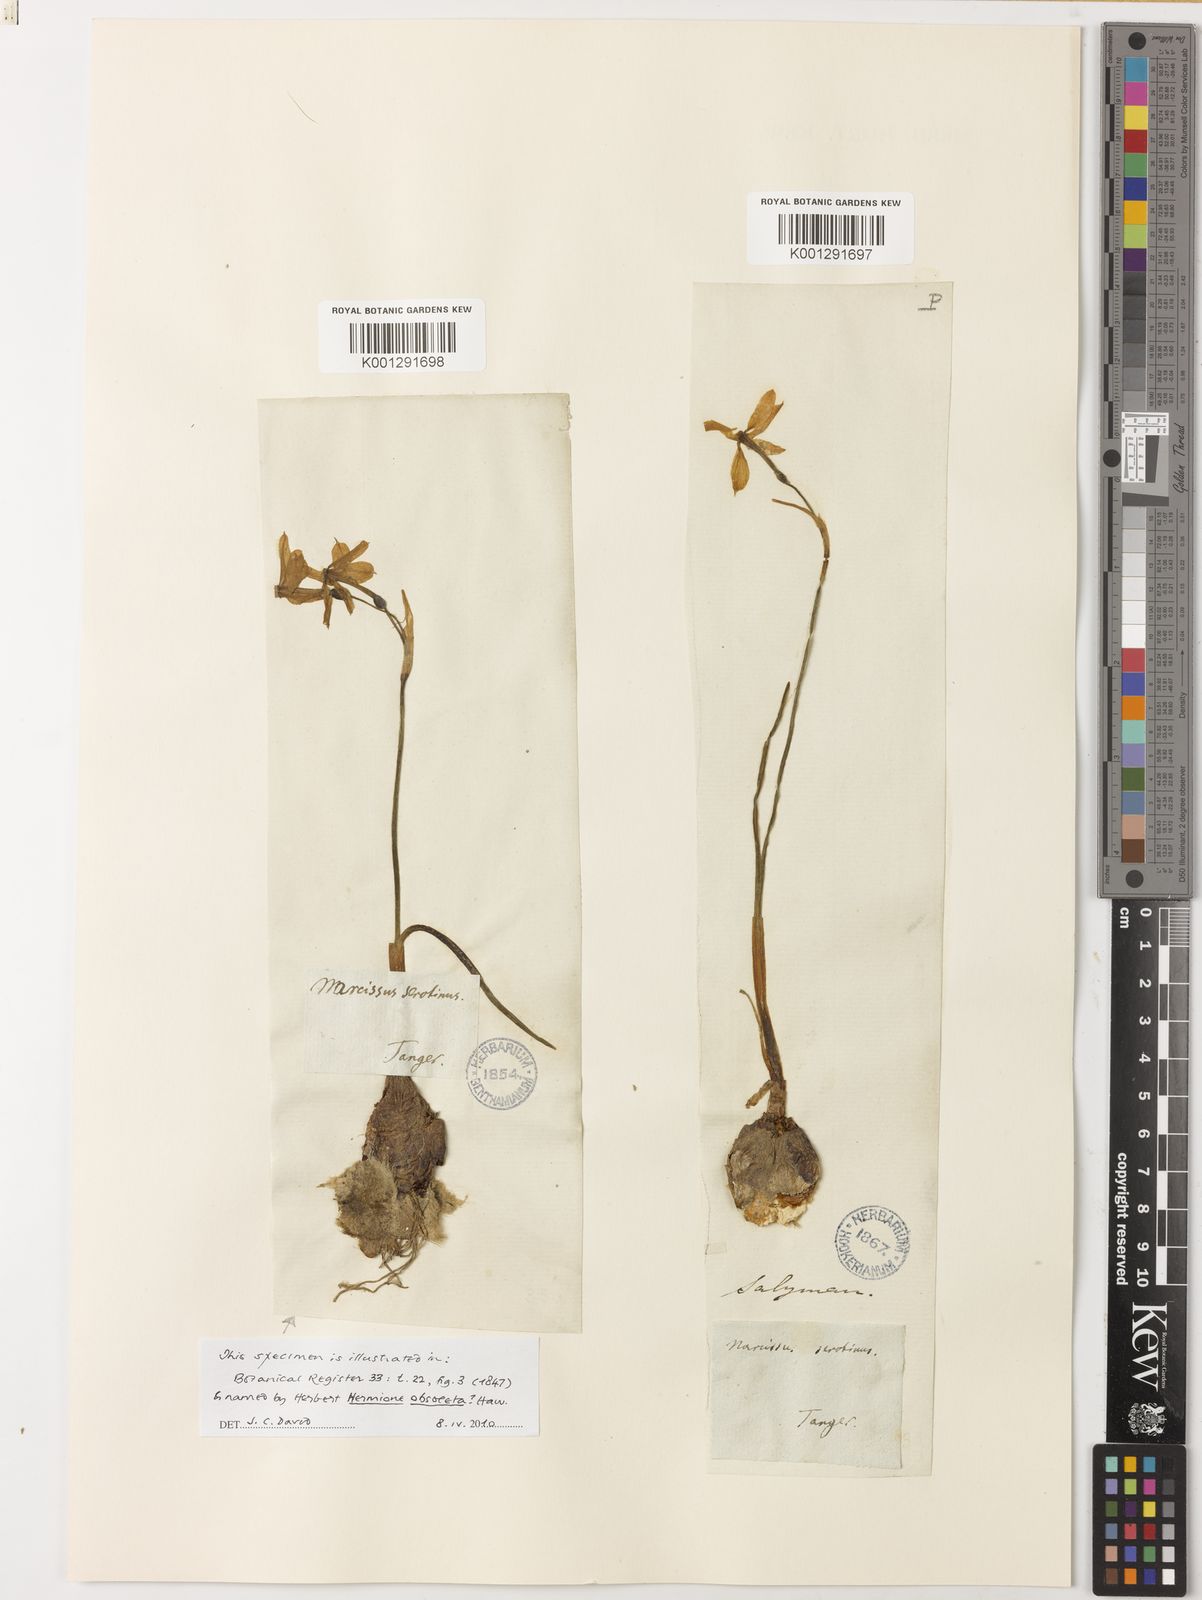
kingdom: Plantae
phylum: Tracheophyta
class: Liliopsida
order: Asparagales
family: Amaryllidaceae
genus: Narcissus
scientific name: Narcissus obsoletus
